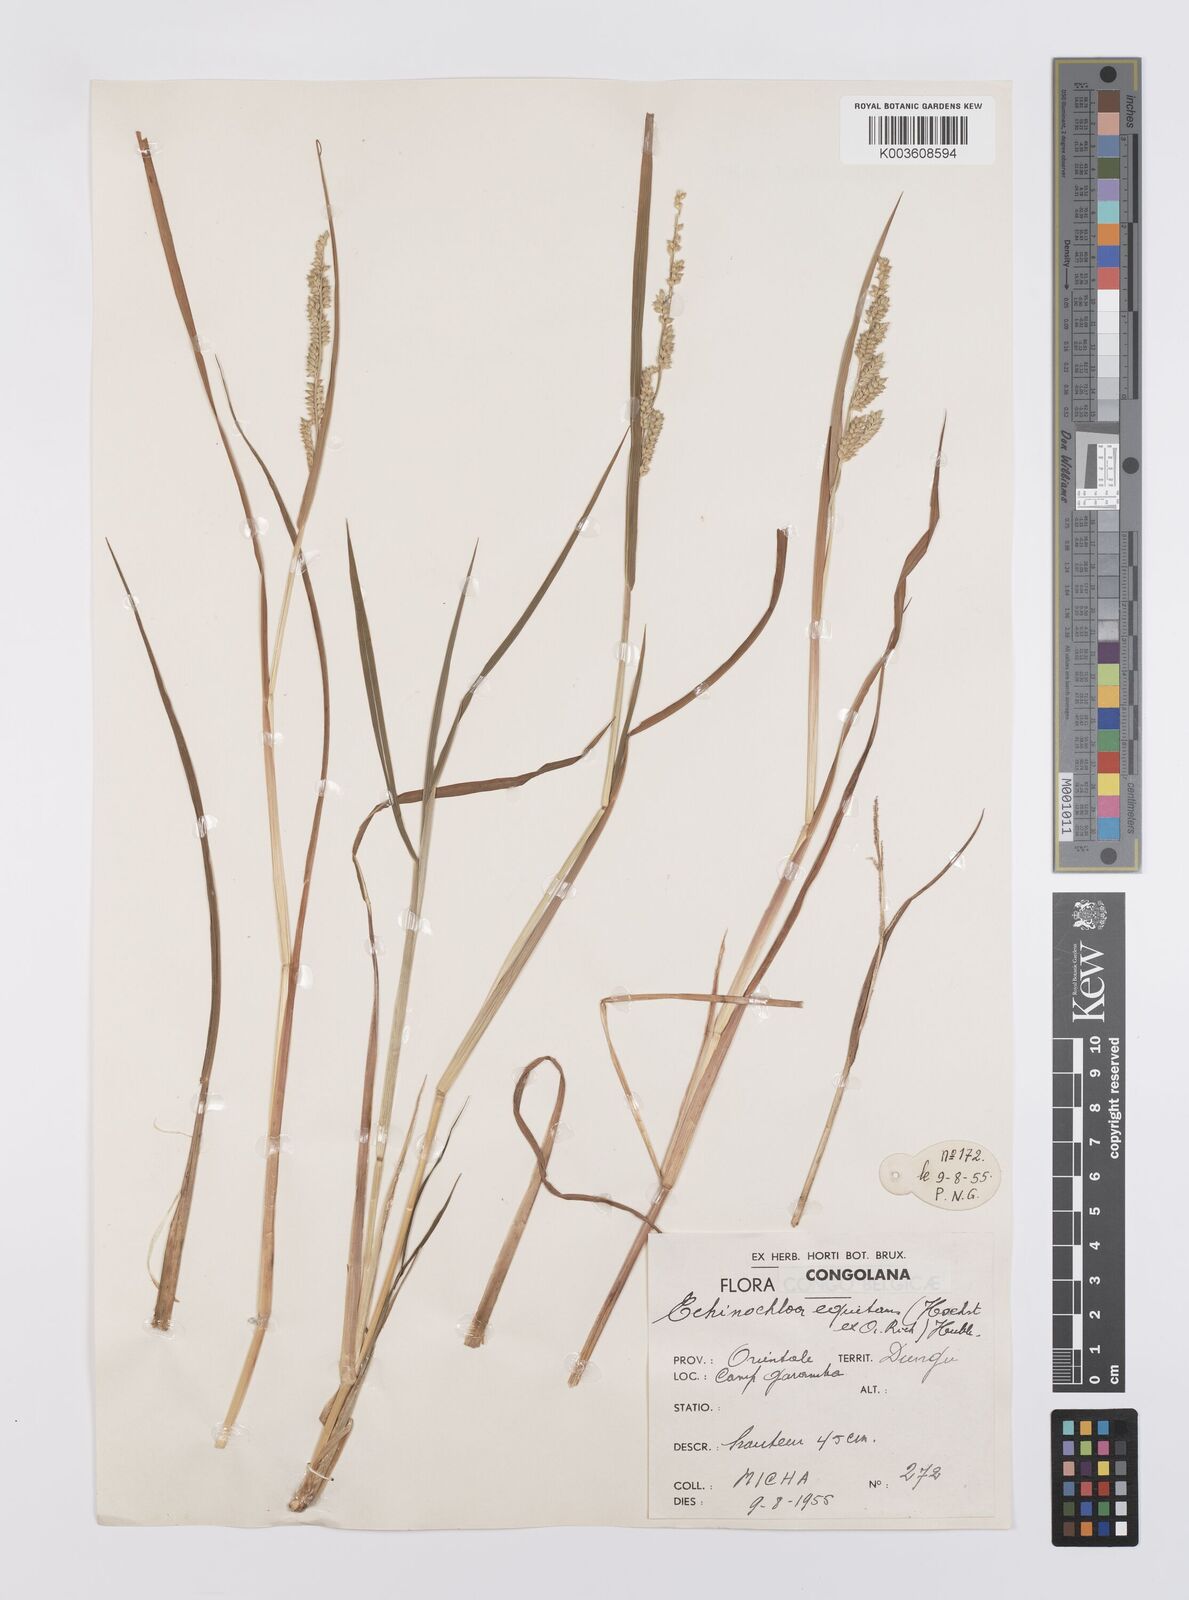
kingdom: Plantae
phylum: Tracheophyta
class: Liliopsida
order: Poales
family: Poaceae
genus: Echinochloa
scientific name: Echinochloa colonum
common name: Jungle rice
